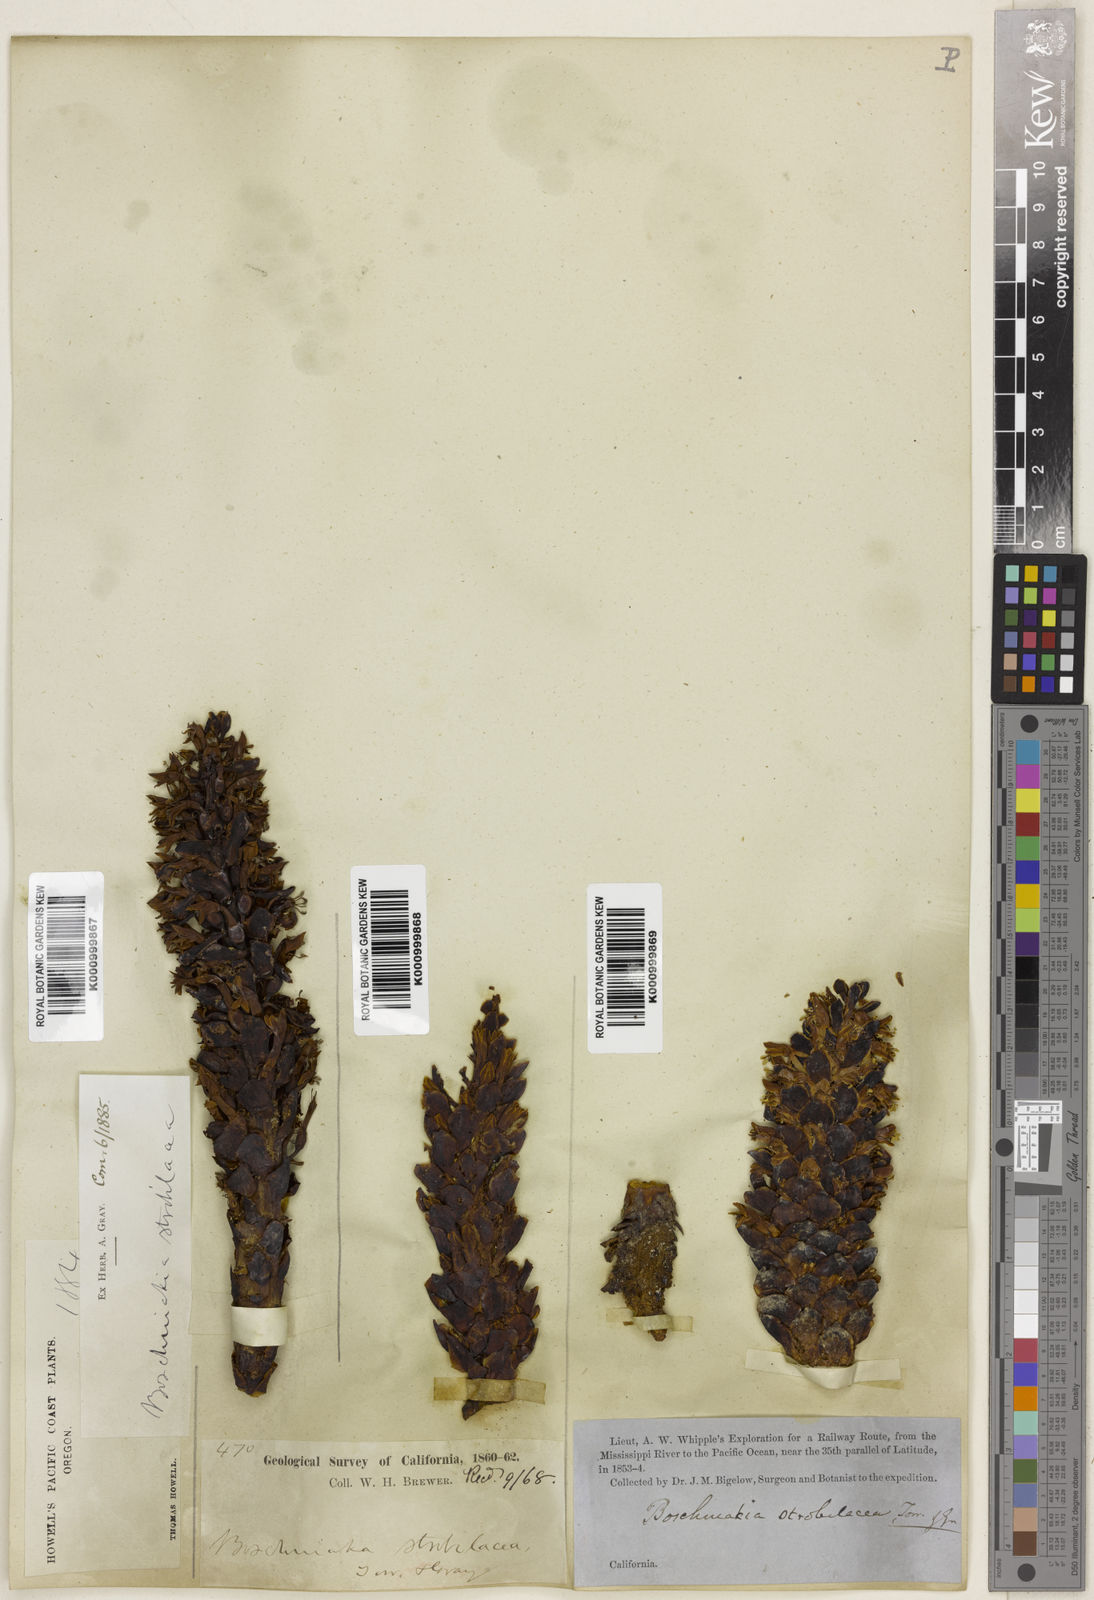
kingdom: Plantae
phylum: Tracheophyta
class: Magnoliopsida
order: Lamiales
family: Orobanchaceae
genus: Kopsiopsis
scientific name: Kopsiopsis strobilacea
